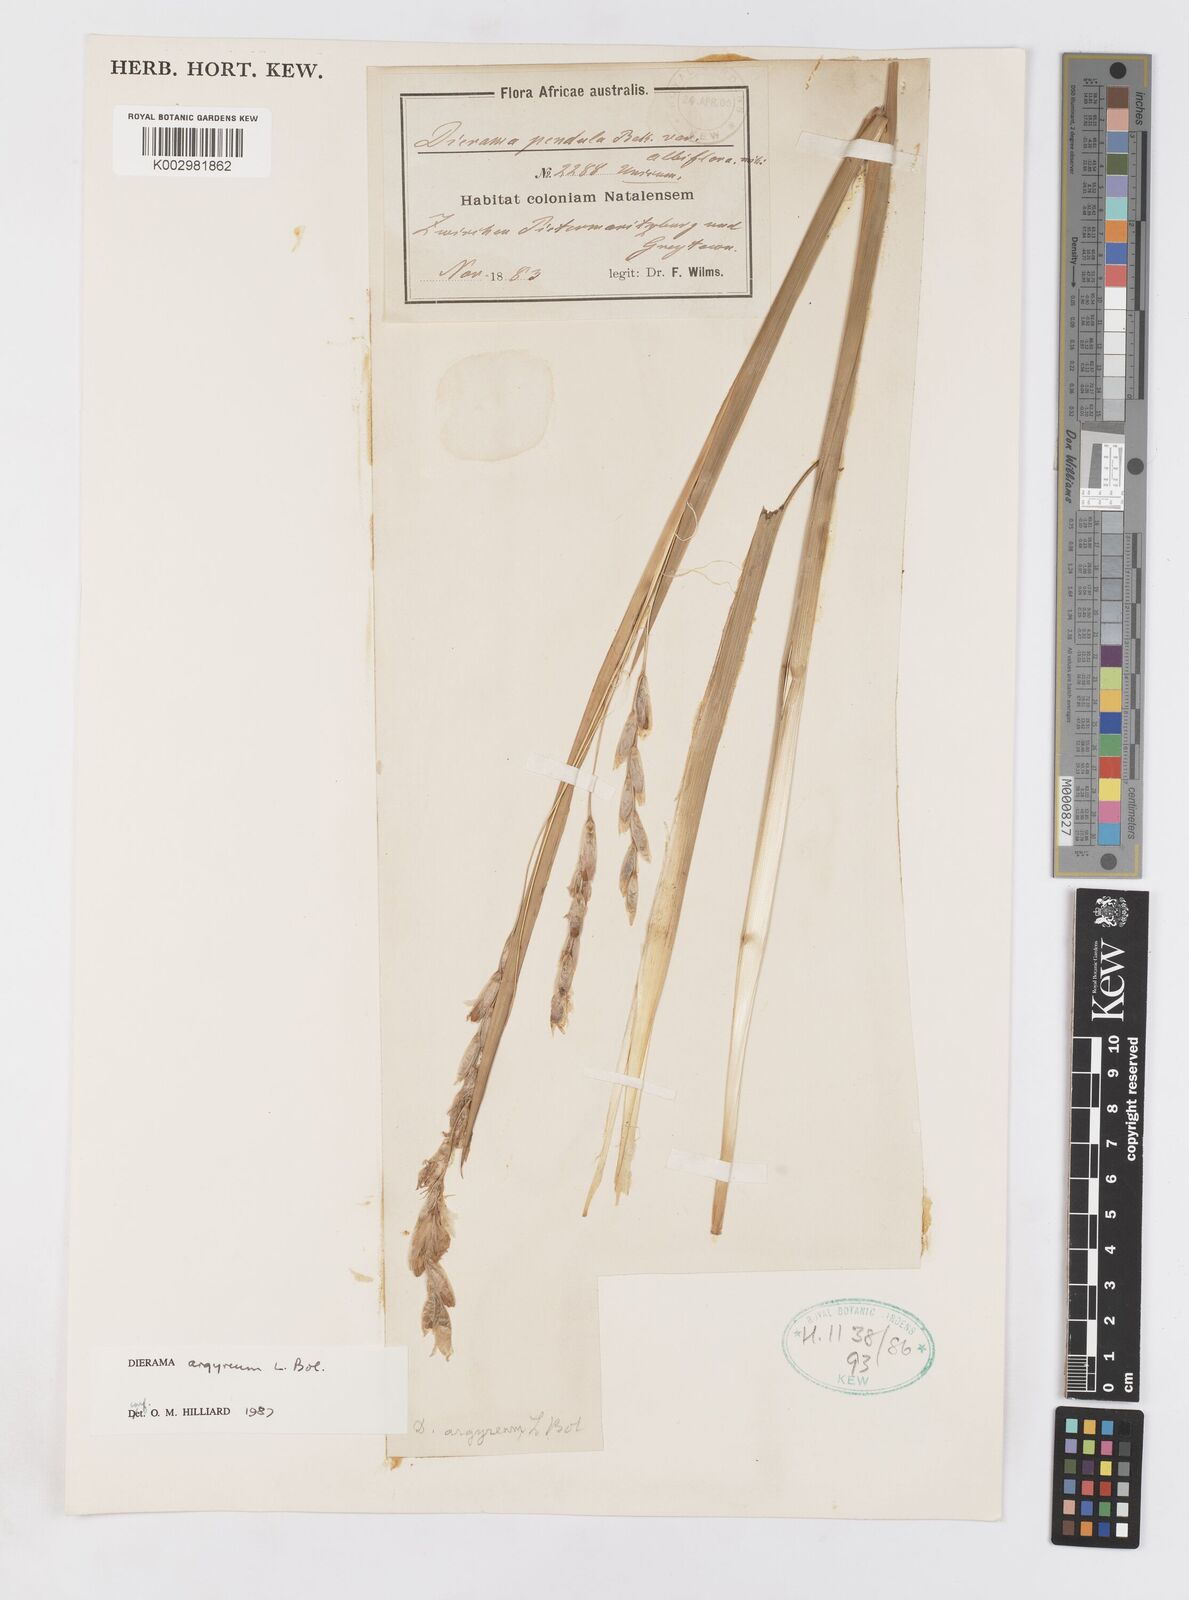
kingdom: Plantae
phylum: Tracheophyta
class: Liliopsida
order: Asparagales
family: Iridaceae
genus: Dierama
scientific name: Dierama argyreum
